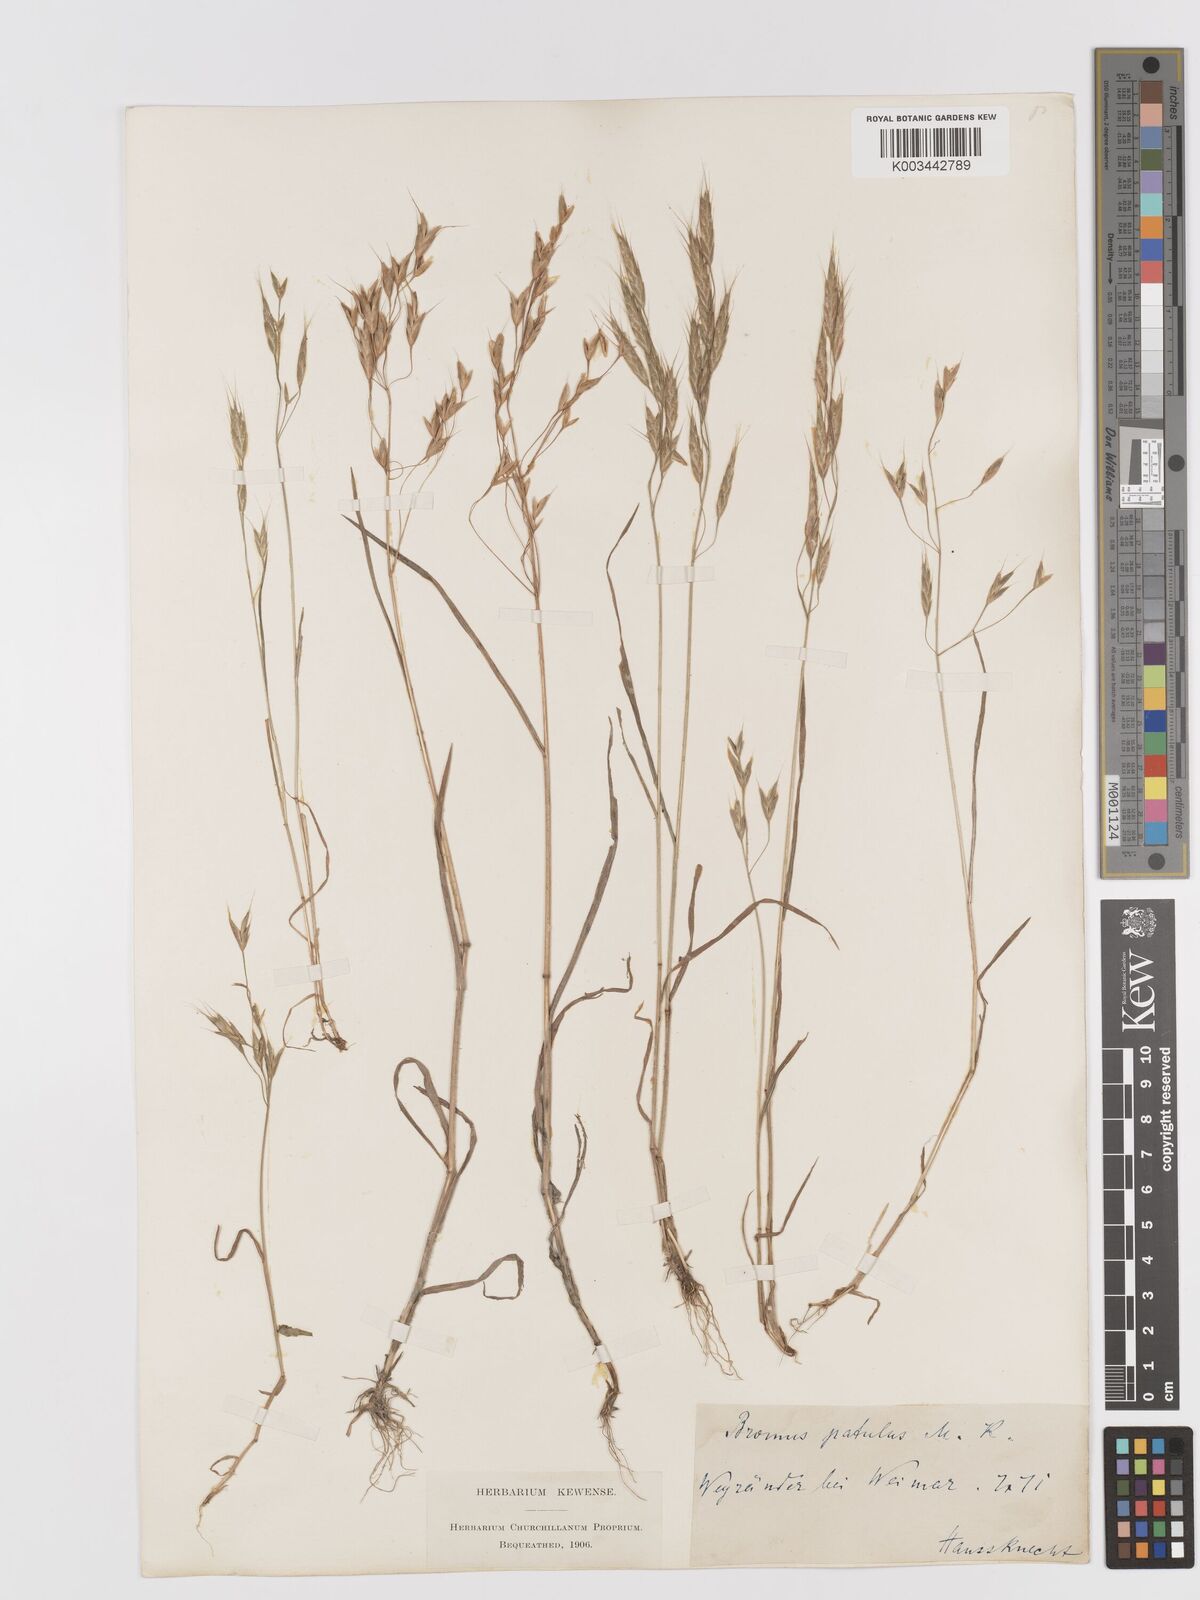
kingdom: Plantae
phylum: Tracheophyta
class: Liliopsida
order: Poales
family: Poaceae
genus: Bromus
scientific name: Bromus japonicus
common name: Japanese brome
